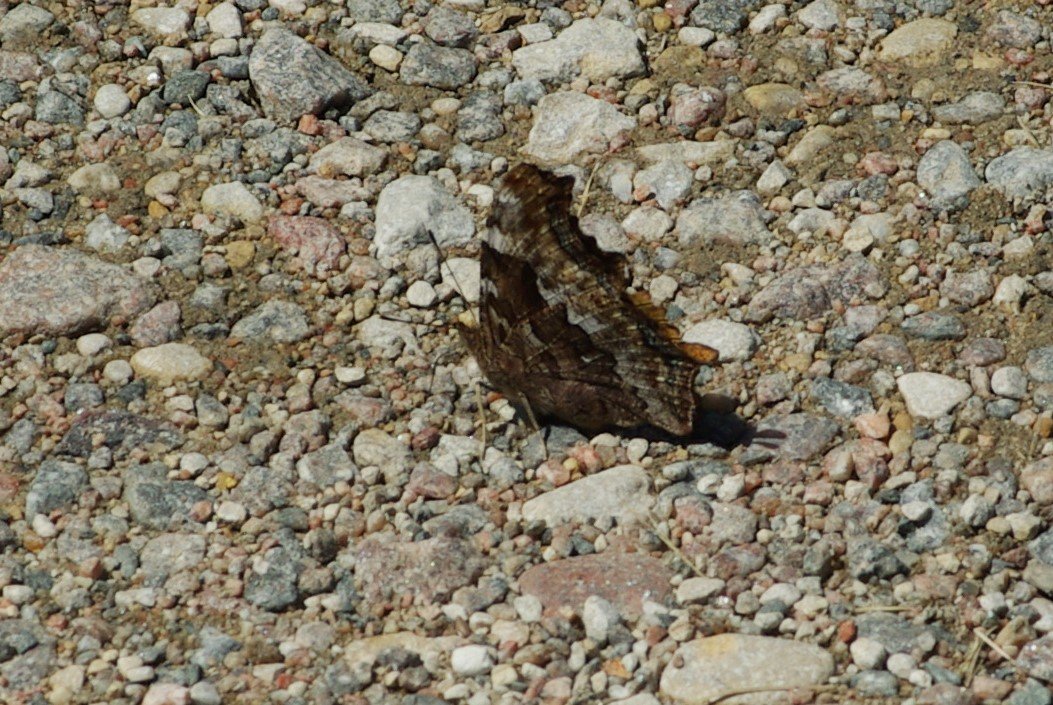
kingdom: Animalia
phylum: Arthropoda
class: Insecta
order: Lepidoptera
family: Nymphalidae
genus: Polygonia
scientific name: Polygonia vaualbum
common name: Compton Tortoiseshell
